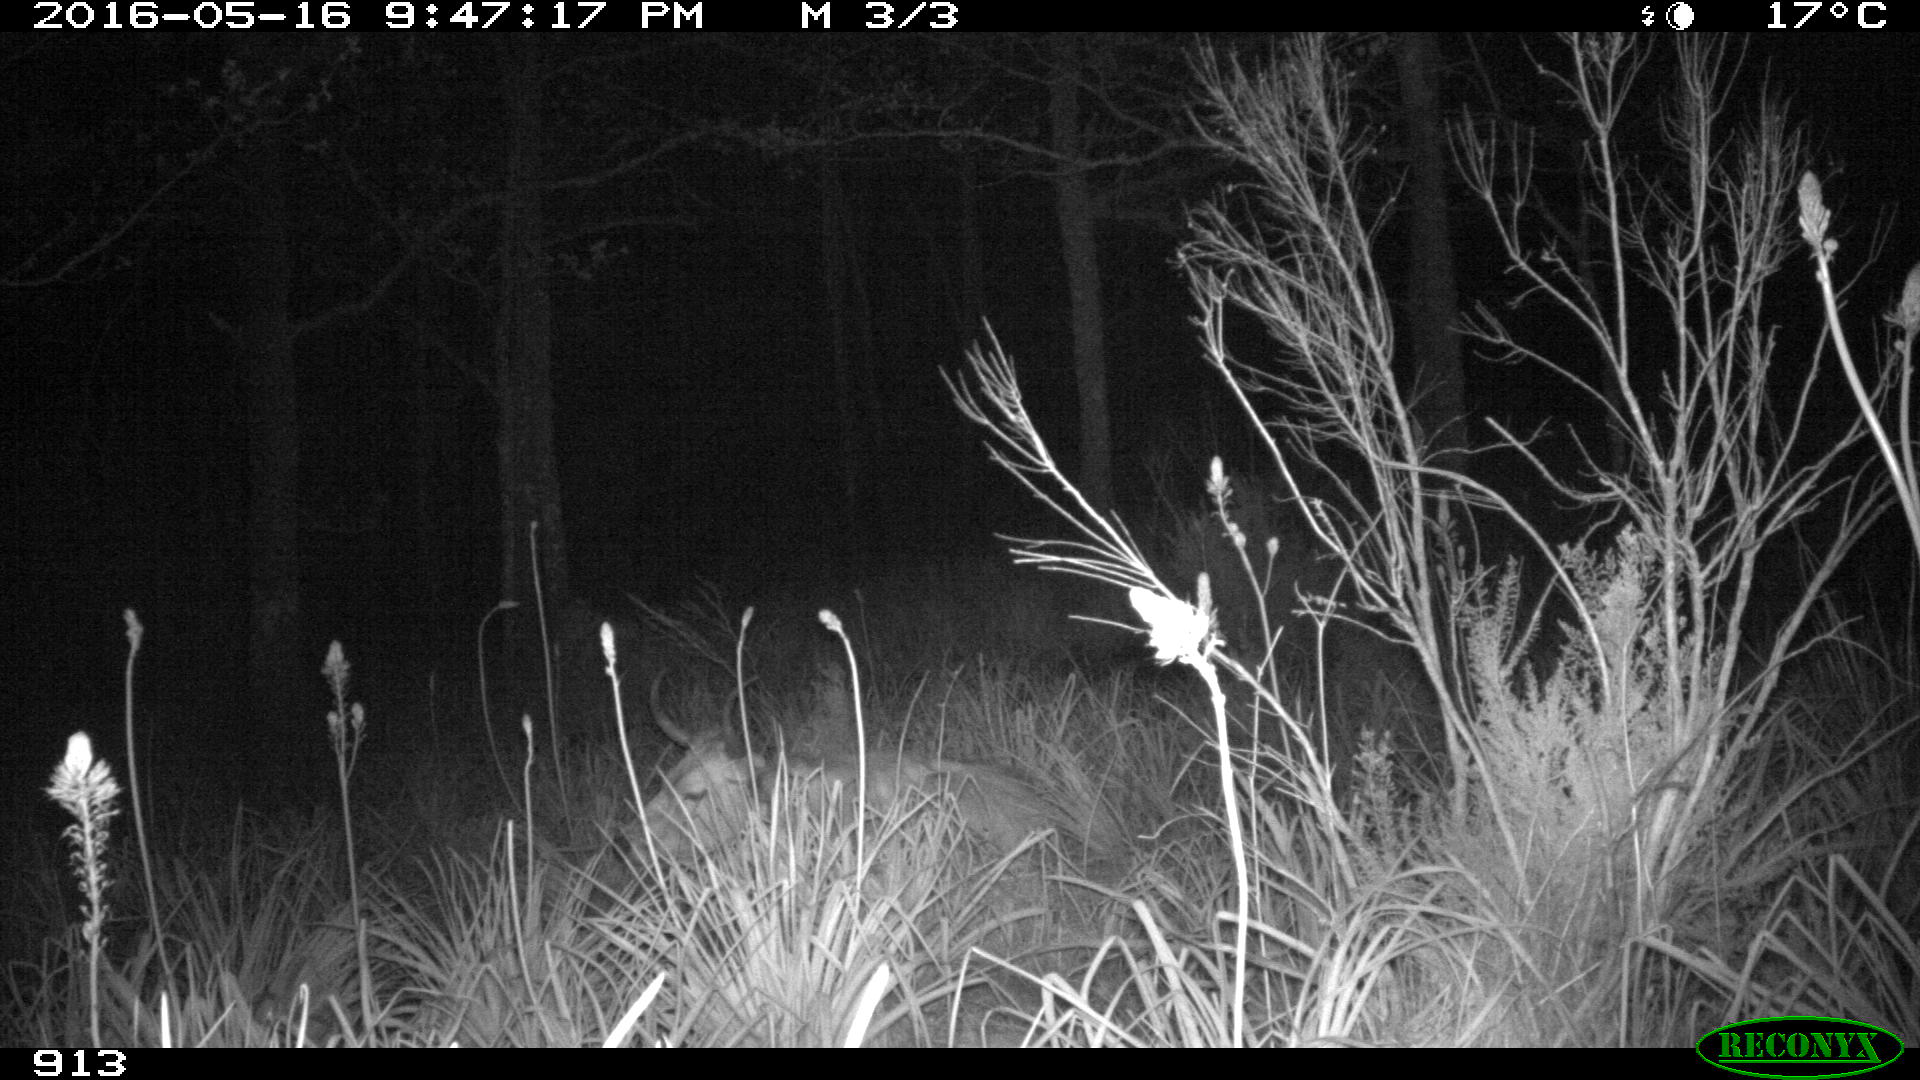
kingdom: Animalia
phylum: Chordata
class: Mammalia
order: Artiodactyla
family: Bovidae
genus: Bos
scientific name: Bos taurus
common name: Domesticated cattle
